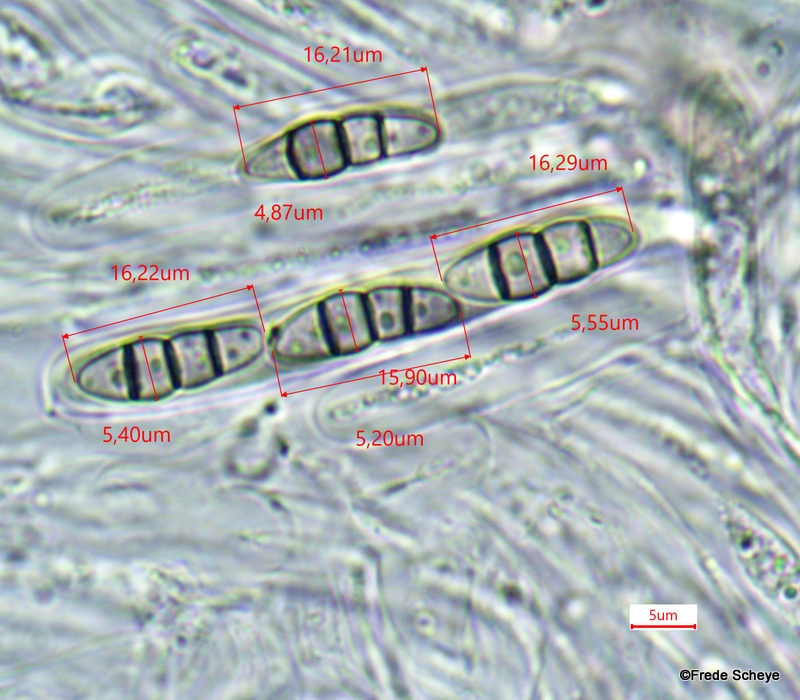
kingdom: Fungi
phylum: Ascomycota
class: Dothideomycetes
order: Pleosporales
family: Melanommataceae
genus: Melanomma
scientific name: Melanomma pulvis-pyrius
